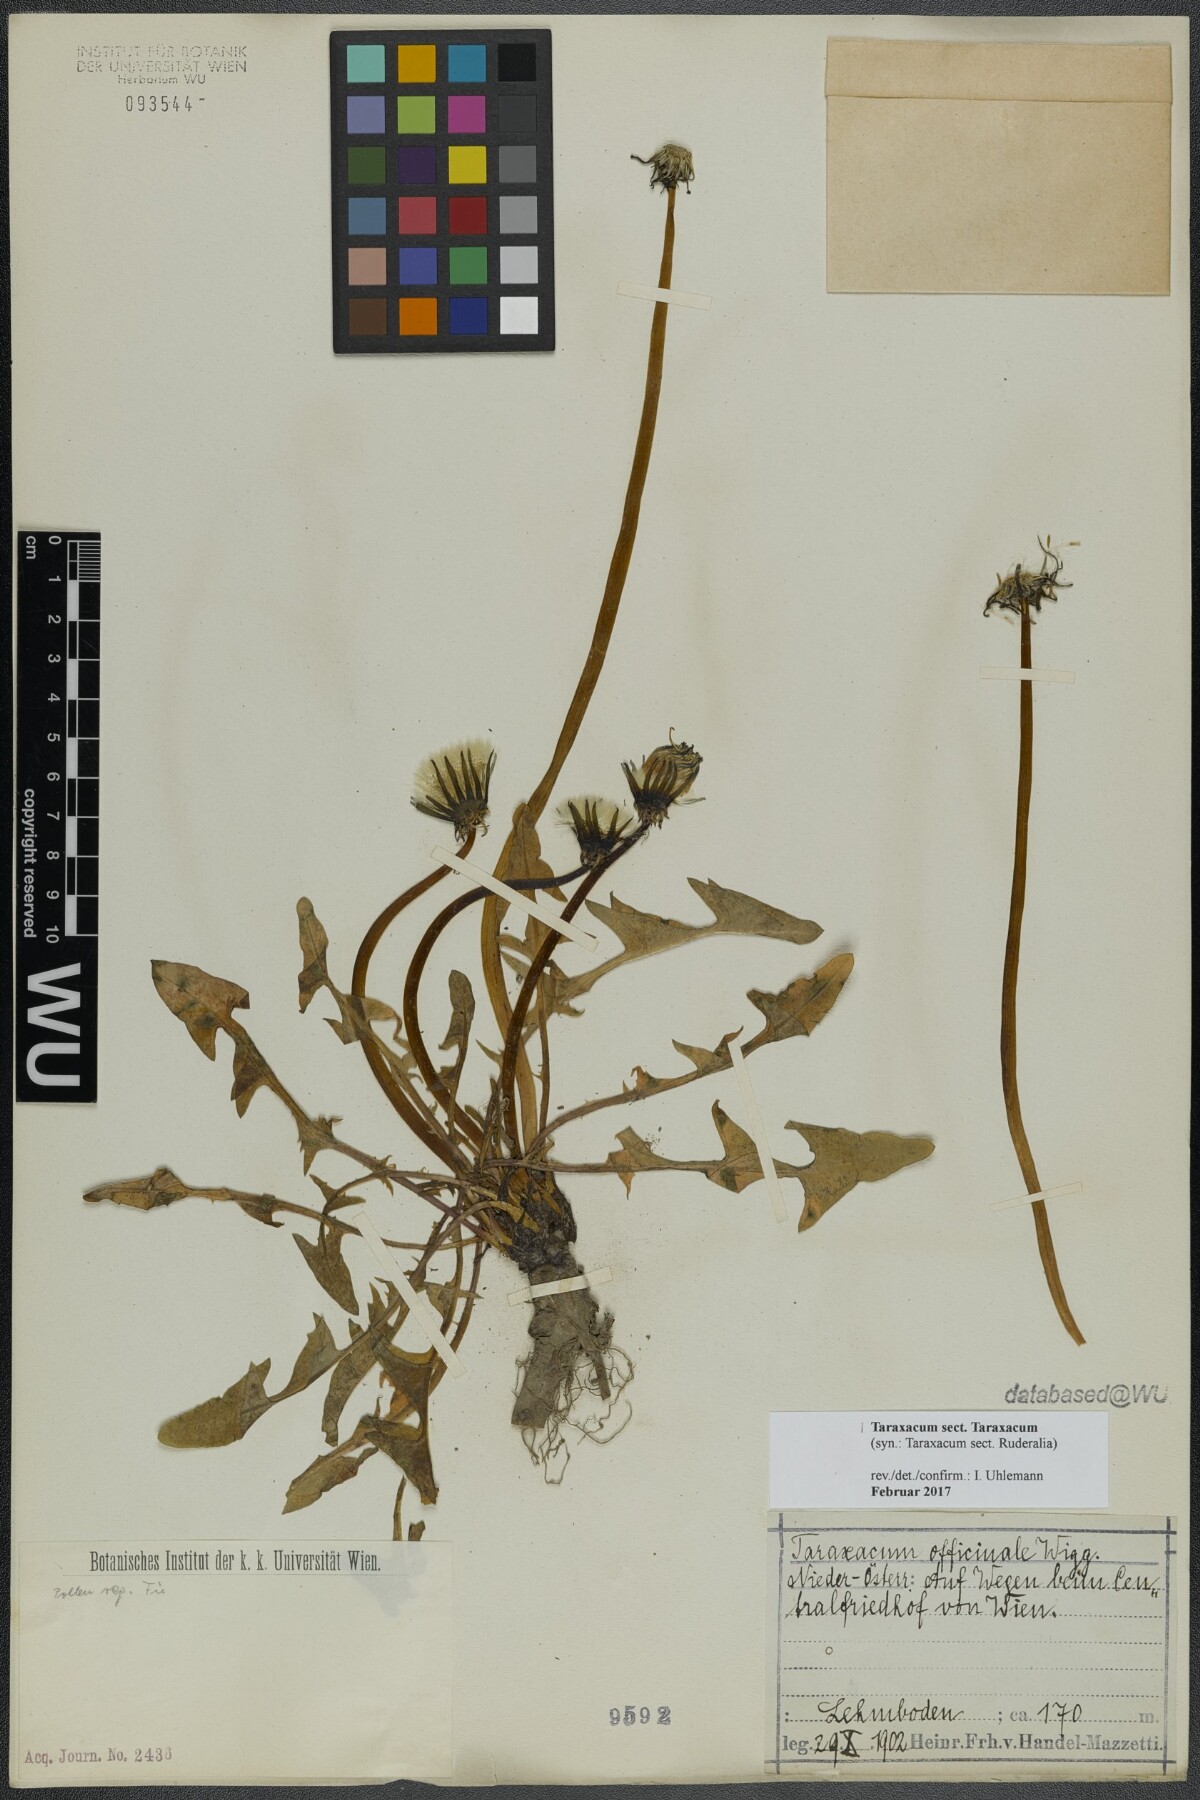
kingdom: Plantae
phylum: Tracheophyta
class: Magnoliopsida
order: Asterales
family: Asteraceae
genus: Taraxacum
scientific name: Taraxacum
